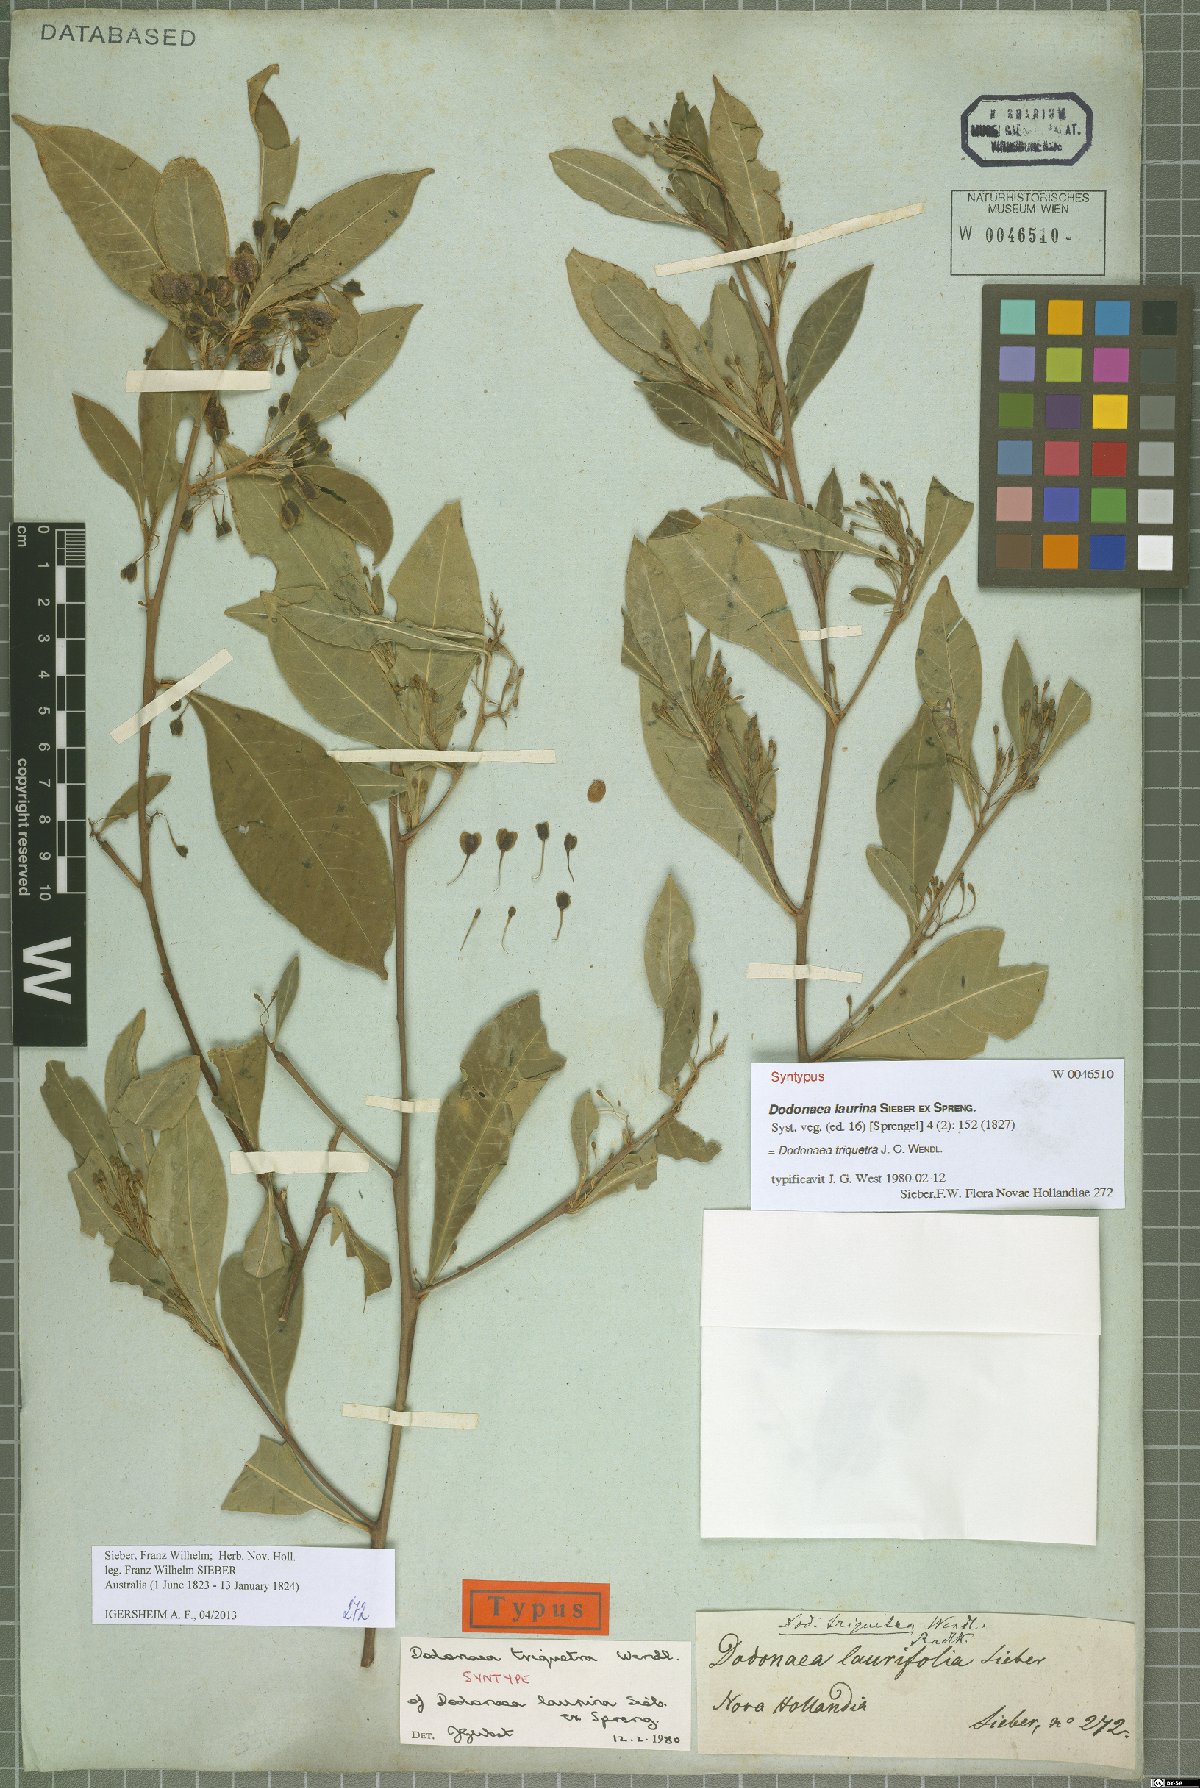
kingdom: Plantae
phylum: Tracheophyta
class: Magnoliopsida
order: Sapindales
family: Sapindaceae
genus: Dodonaea
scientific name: Dodonaea triquetra
